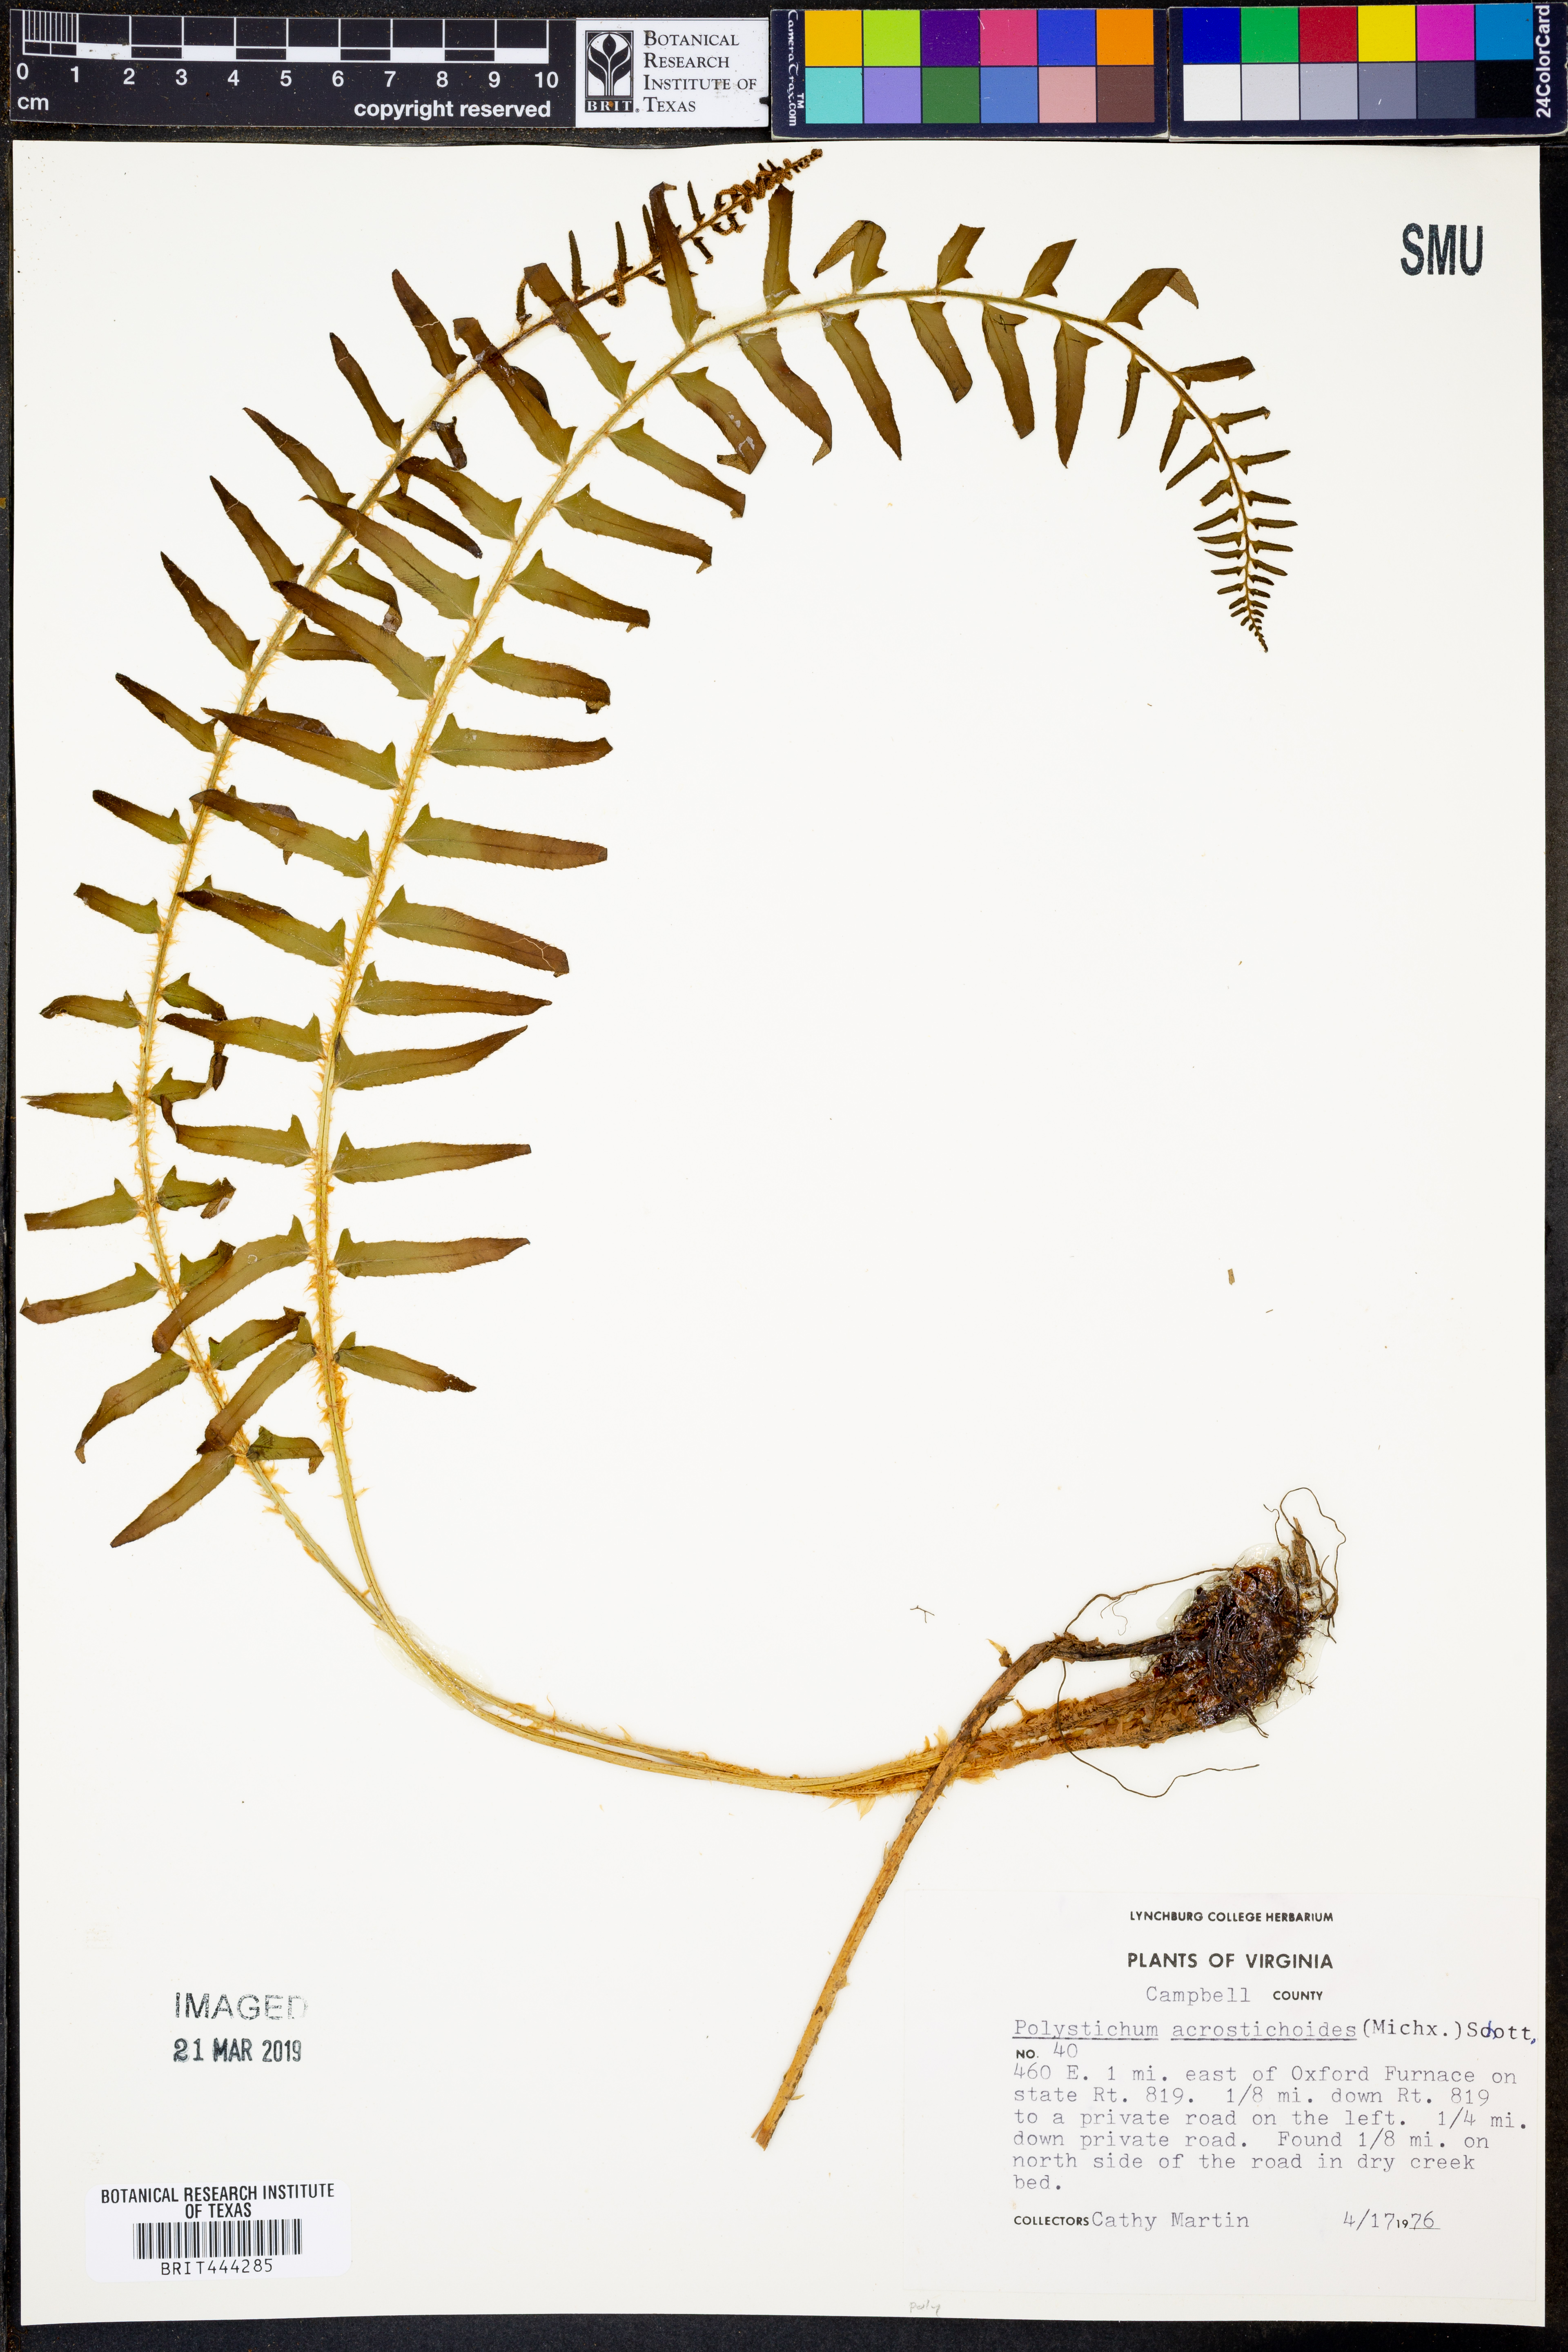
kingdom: Plantae
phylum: Tracheophyta
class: Polypodiopsida
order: Polypodiales
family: Dryopteridaceae
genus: Polystichum
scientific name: Polystichum acrostichoides
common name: Christmas fern
